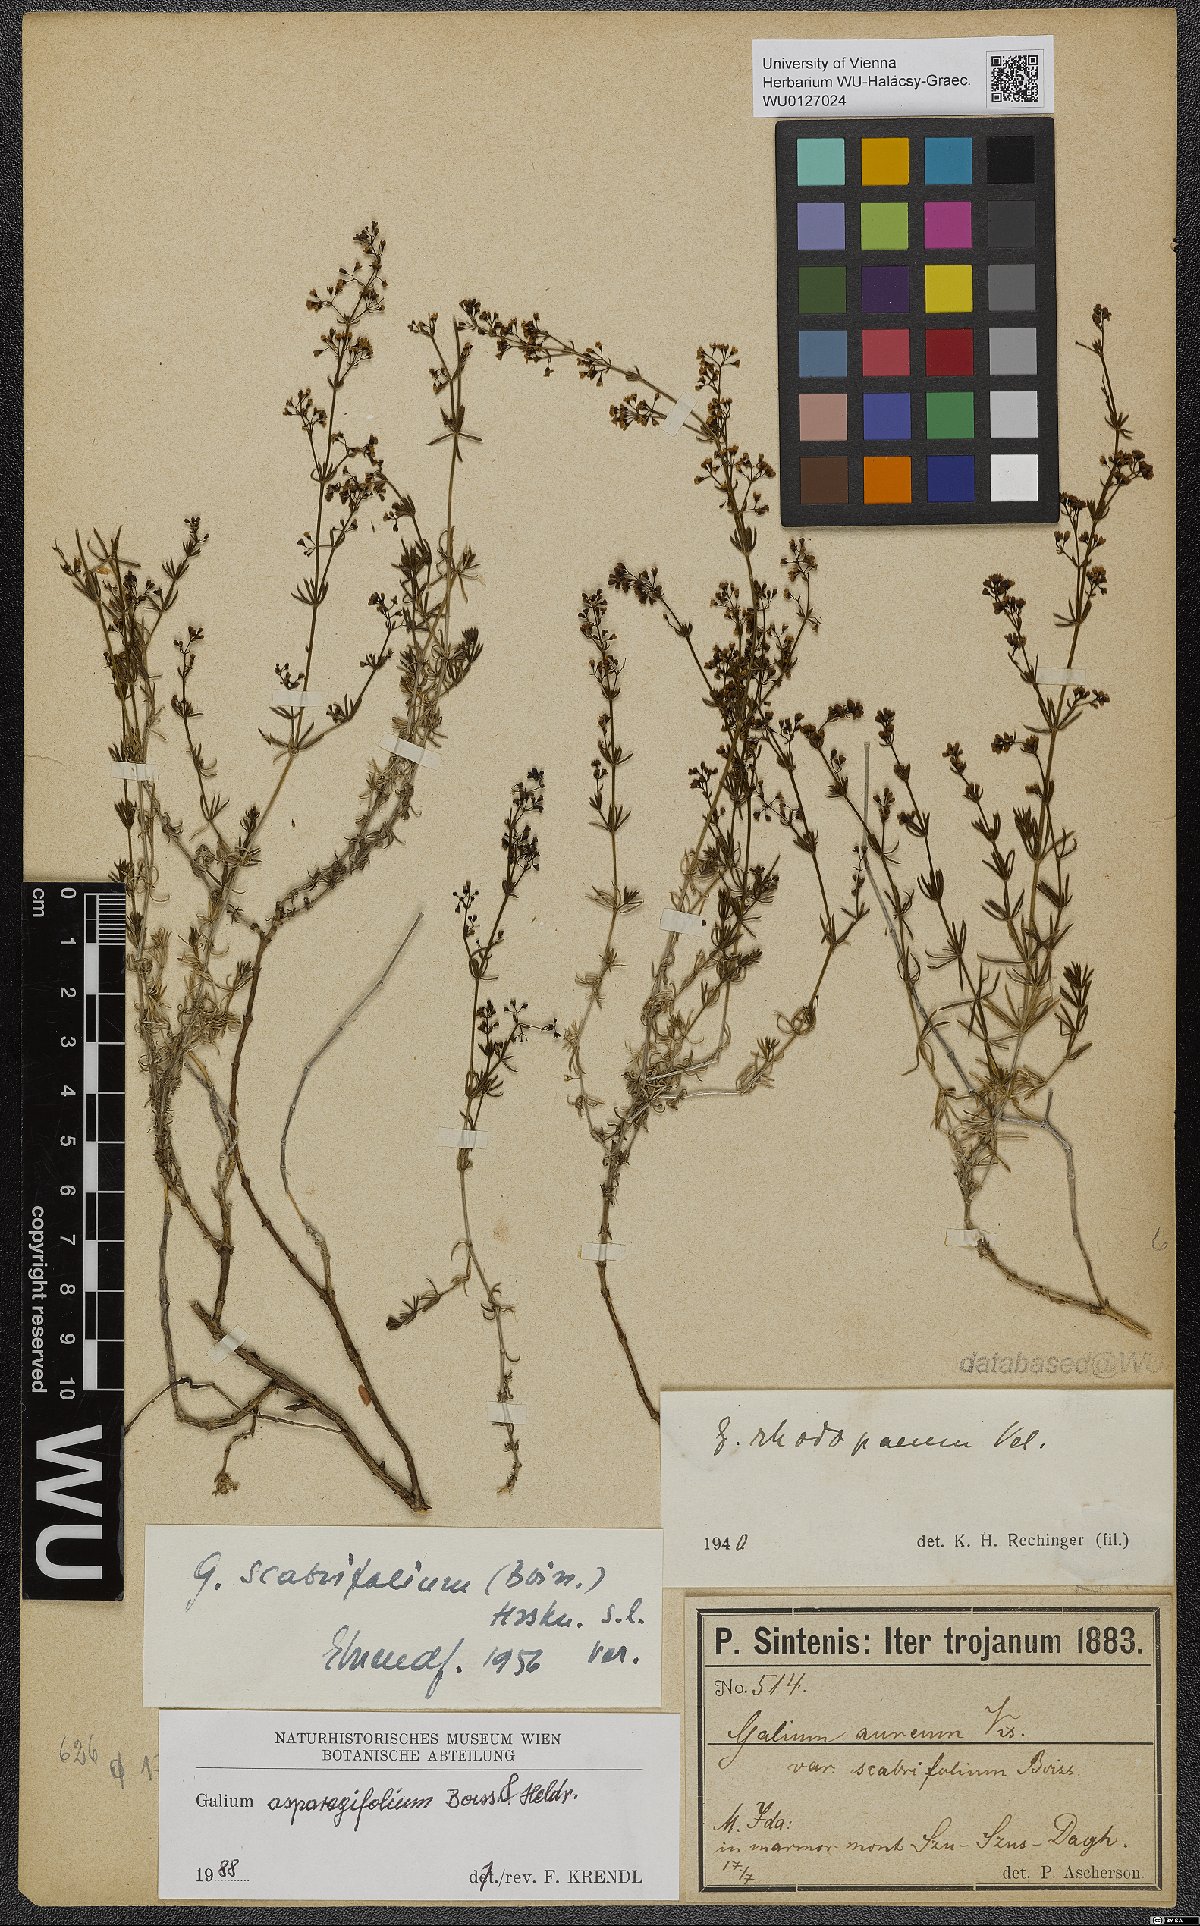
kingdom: Plantae
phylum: Tracheophyta
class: Magnoliopsida
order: Gentianales
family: Rubiaceae
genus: Galium
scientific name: Galium asparagifolium
